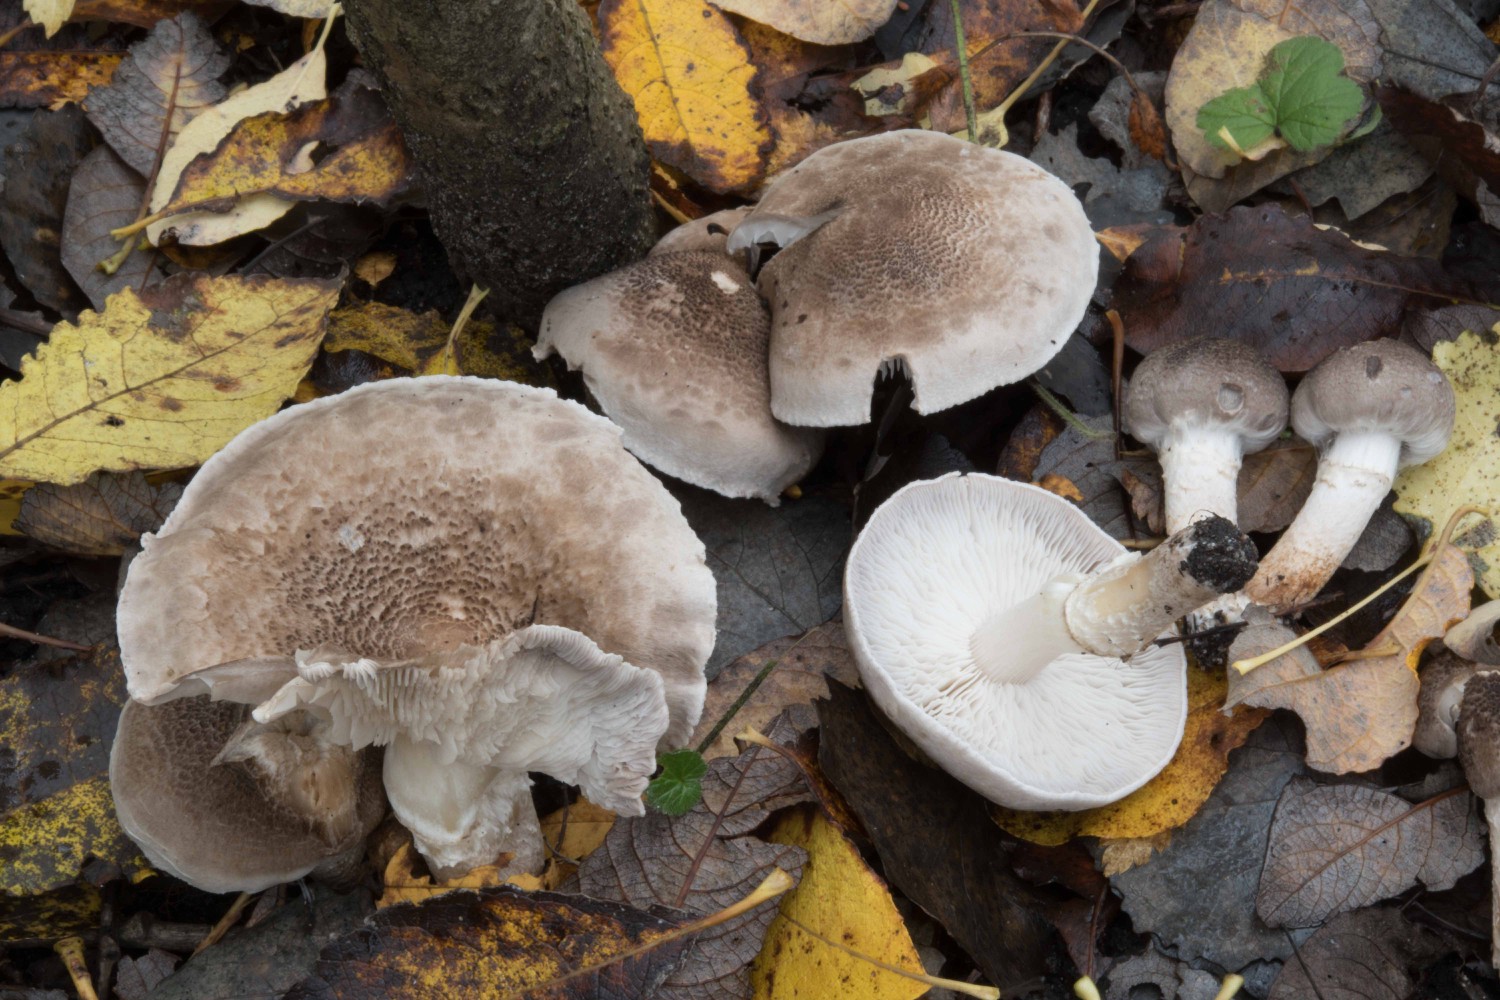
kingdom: Fungi
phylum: Basidiomycota
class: Agaricomycetes
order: Agaricales
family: Tricholomataceae
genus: Tricholoma
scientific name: Tricholoma cingulatum
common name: ring-ridderhat
